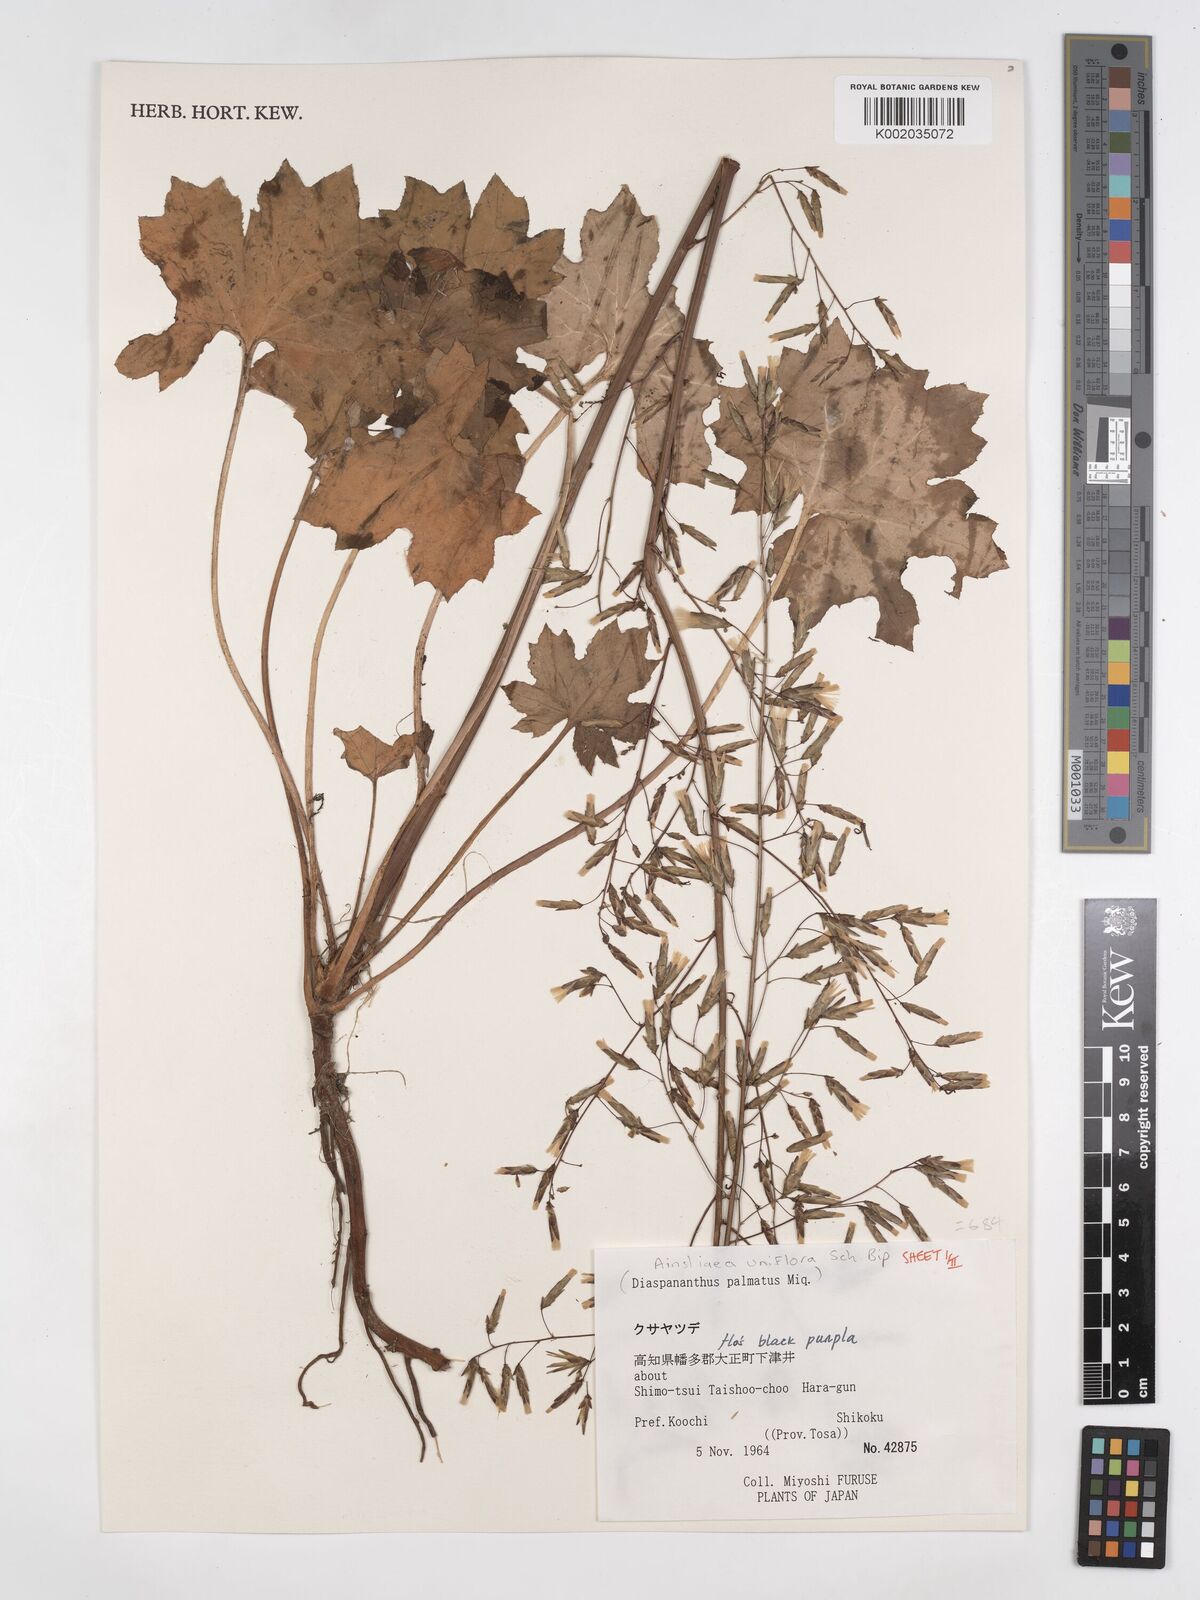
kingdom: Plantae
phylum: Tracheophyta
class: Magnoliopsida
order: Asterales
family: Asteraceae
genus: Ainsliaea
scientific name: Ainsliaea uniflora
